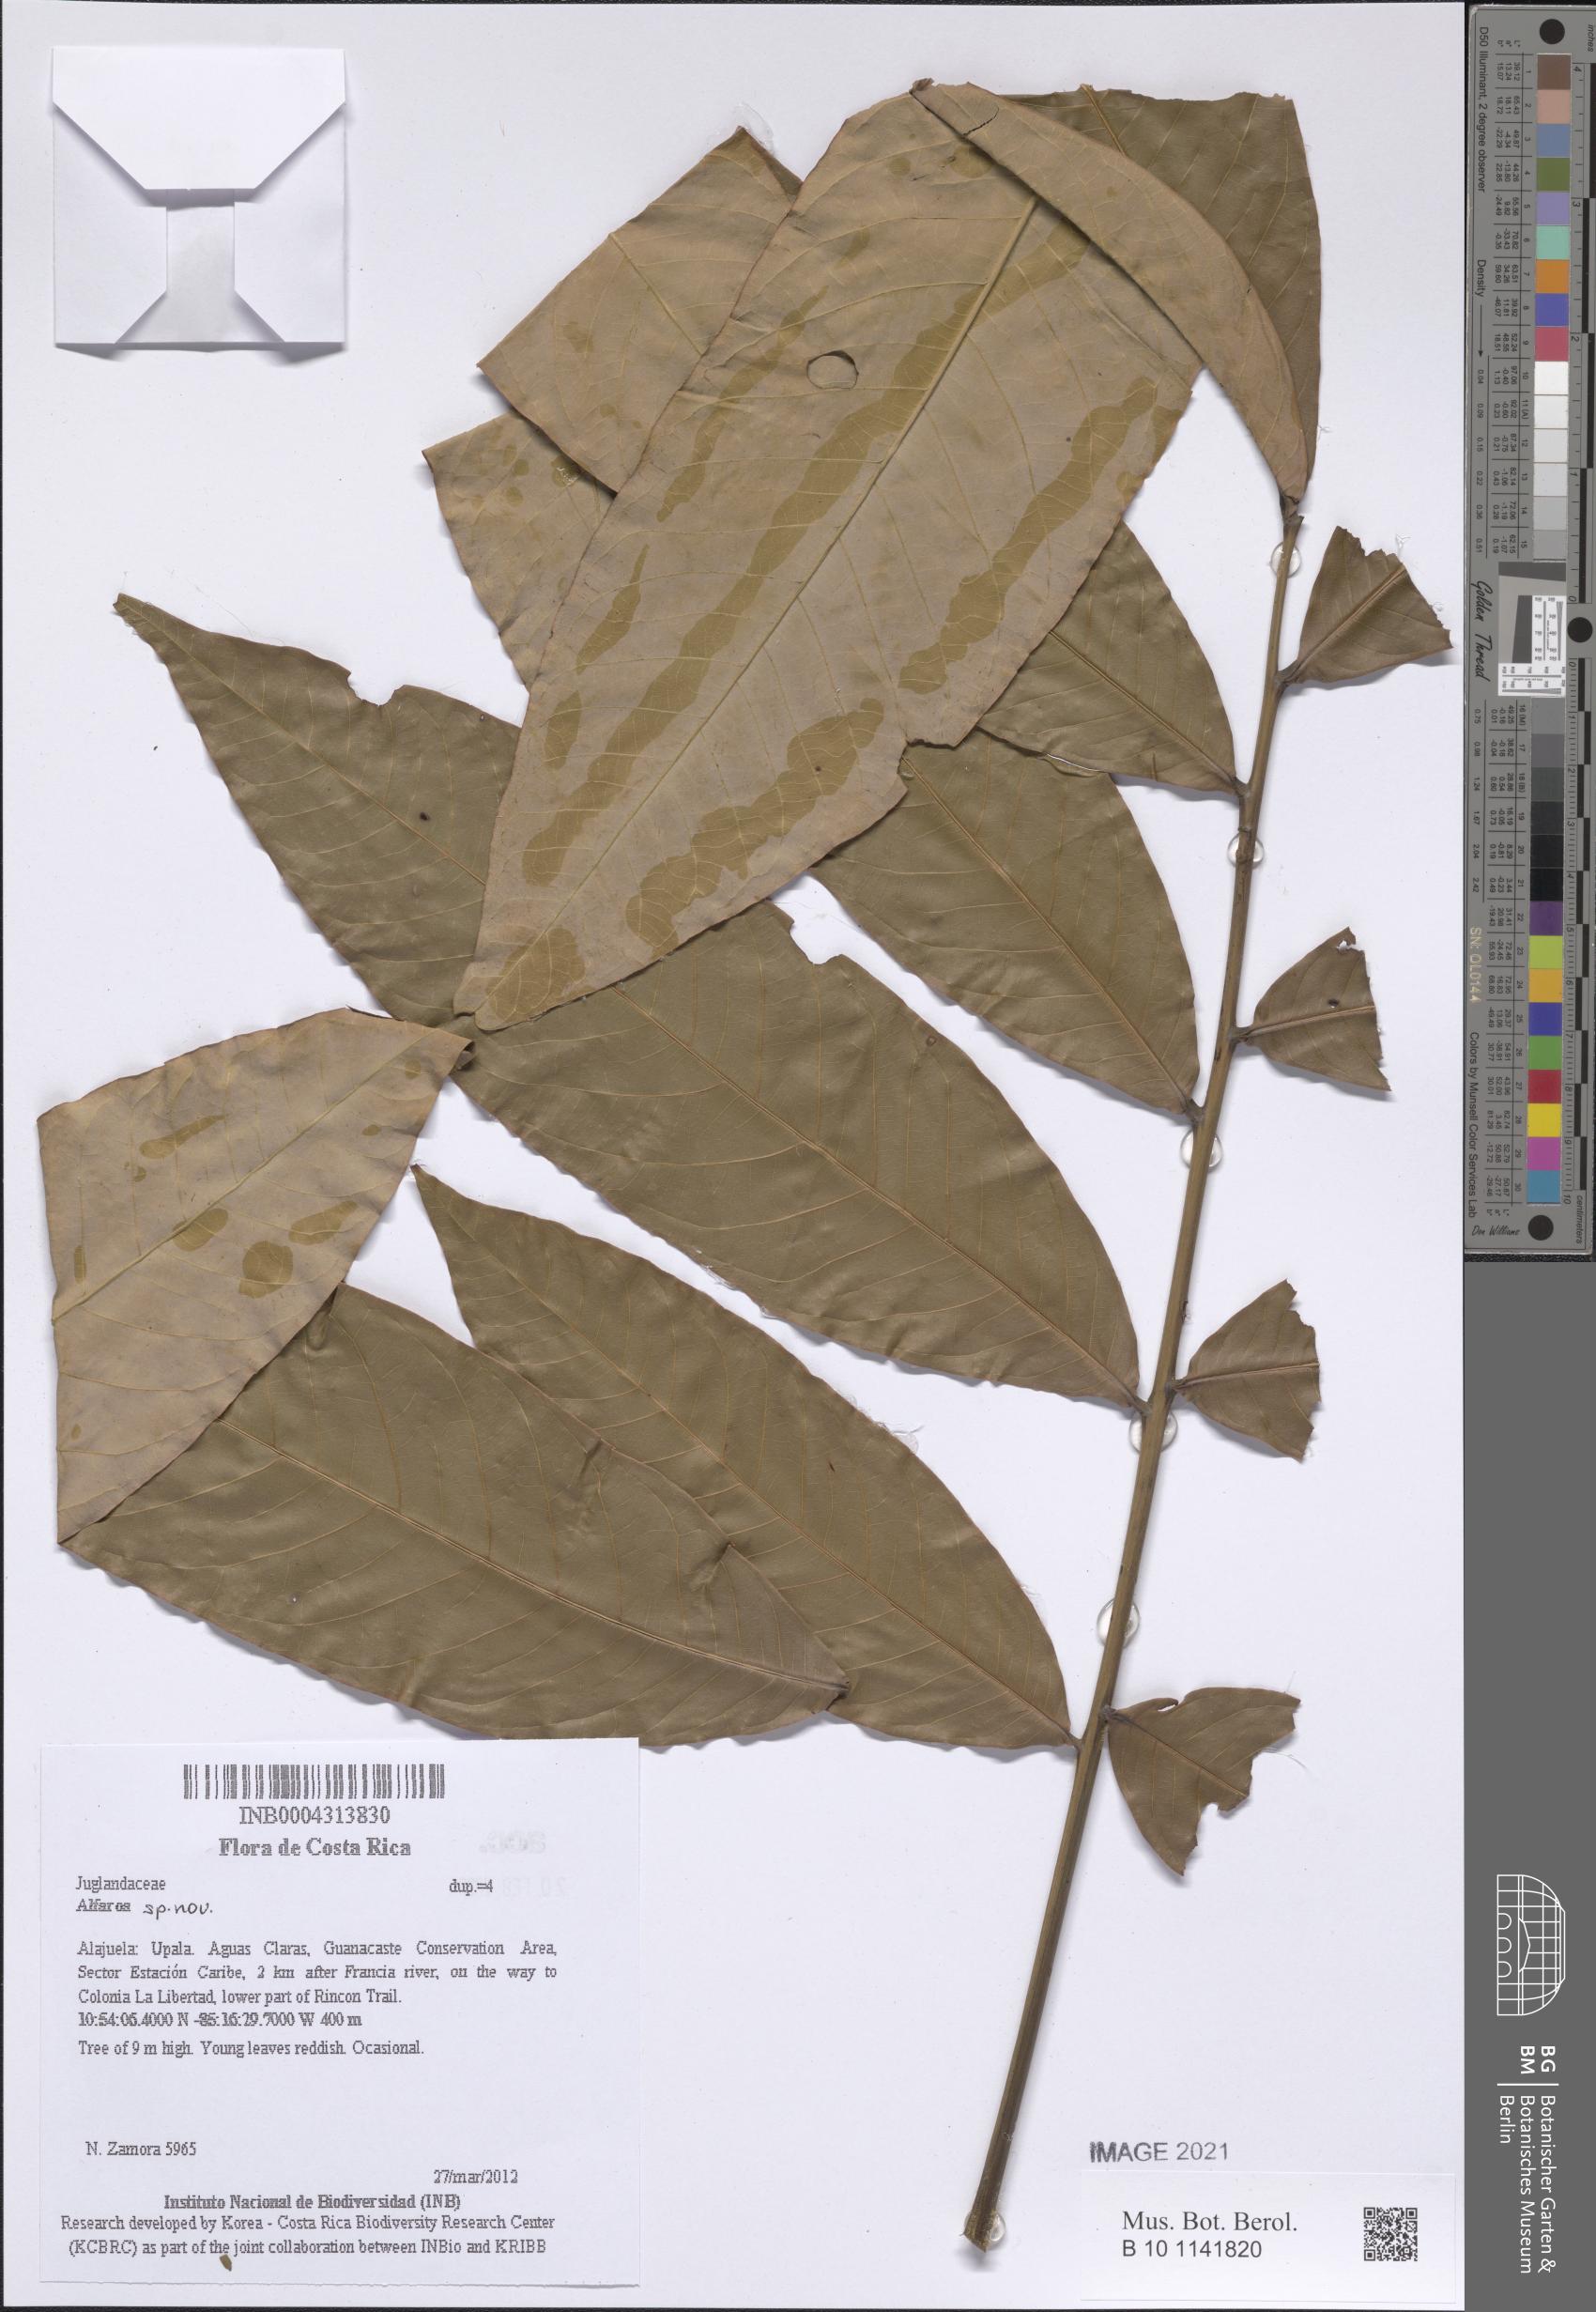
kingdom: Plantae
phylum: Tracheophyta
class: Magnoliopsida
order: Fagales
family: Juglandaceae
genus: Oreomunnea
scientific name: Oreomunnea pterocarpa
